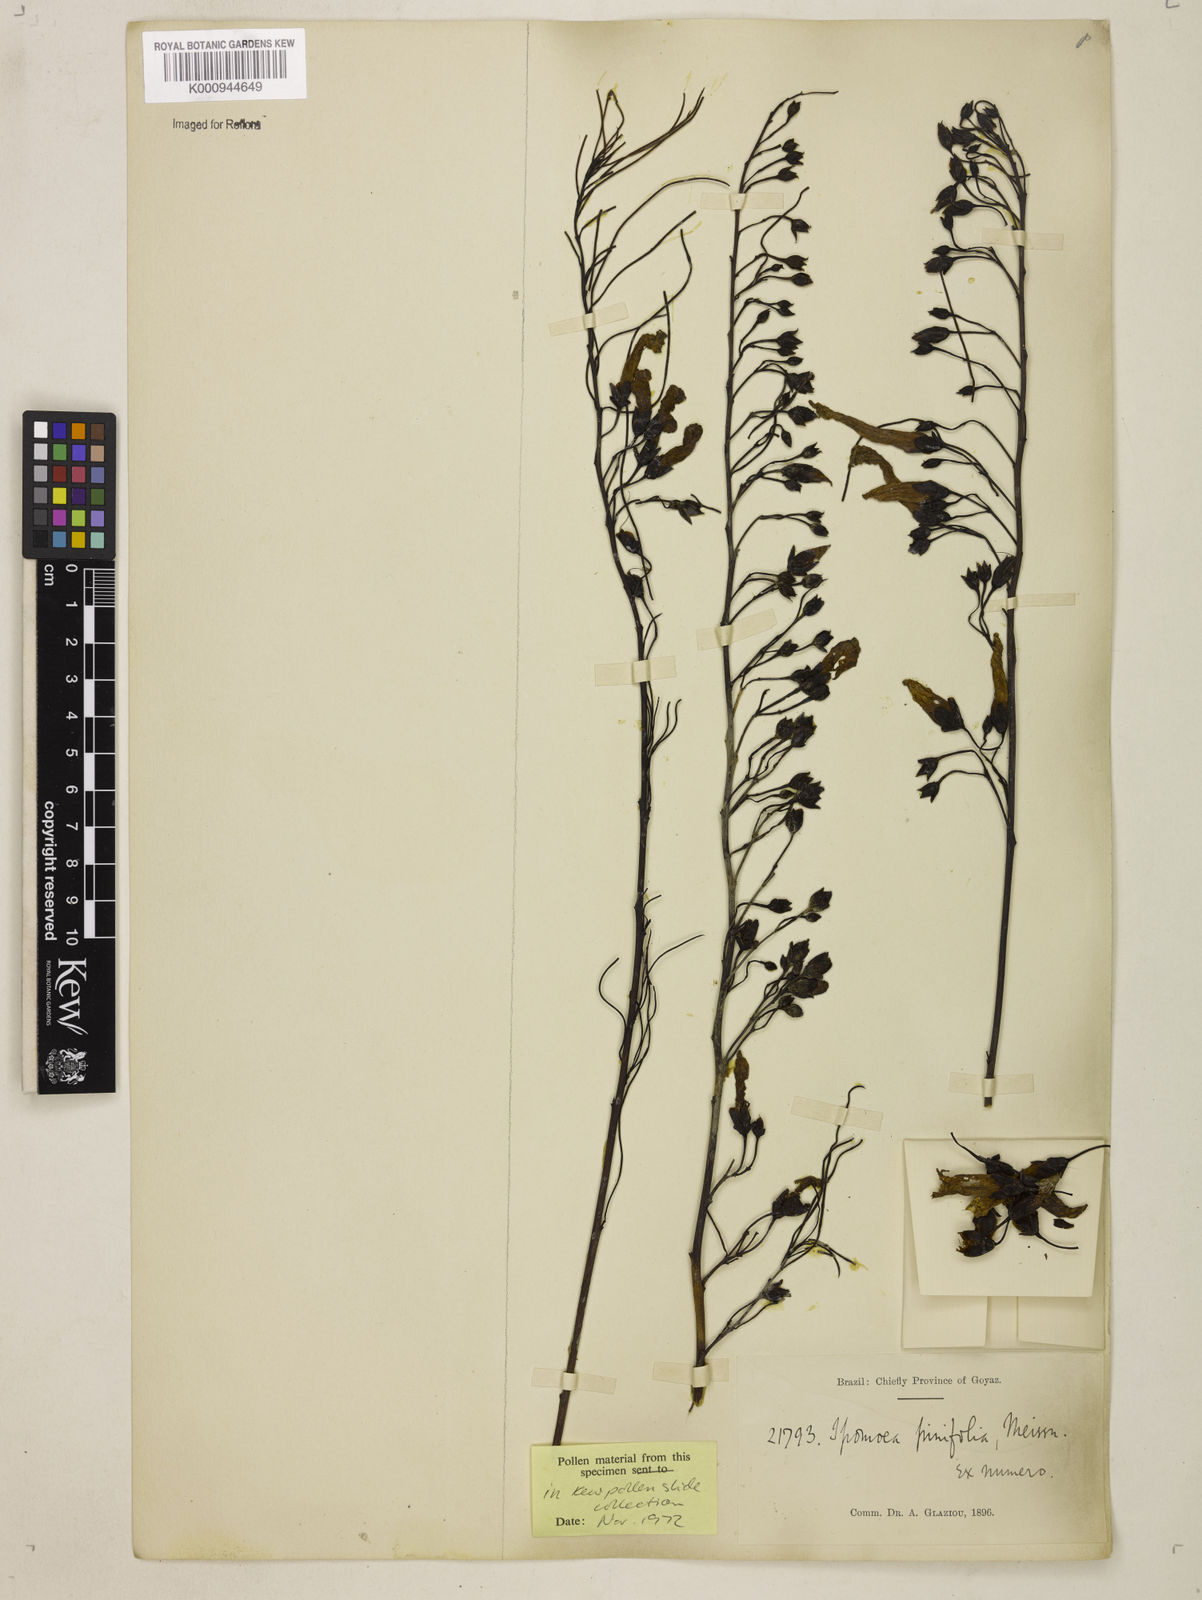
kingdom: Plantae
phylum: Tracheophyta
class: Magnoliopsida
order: Solanales
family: Convolvulaceae
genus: Ipomoea
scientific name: Ipomoea pinifolia
